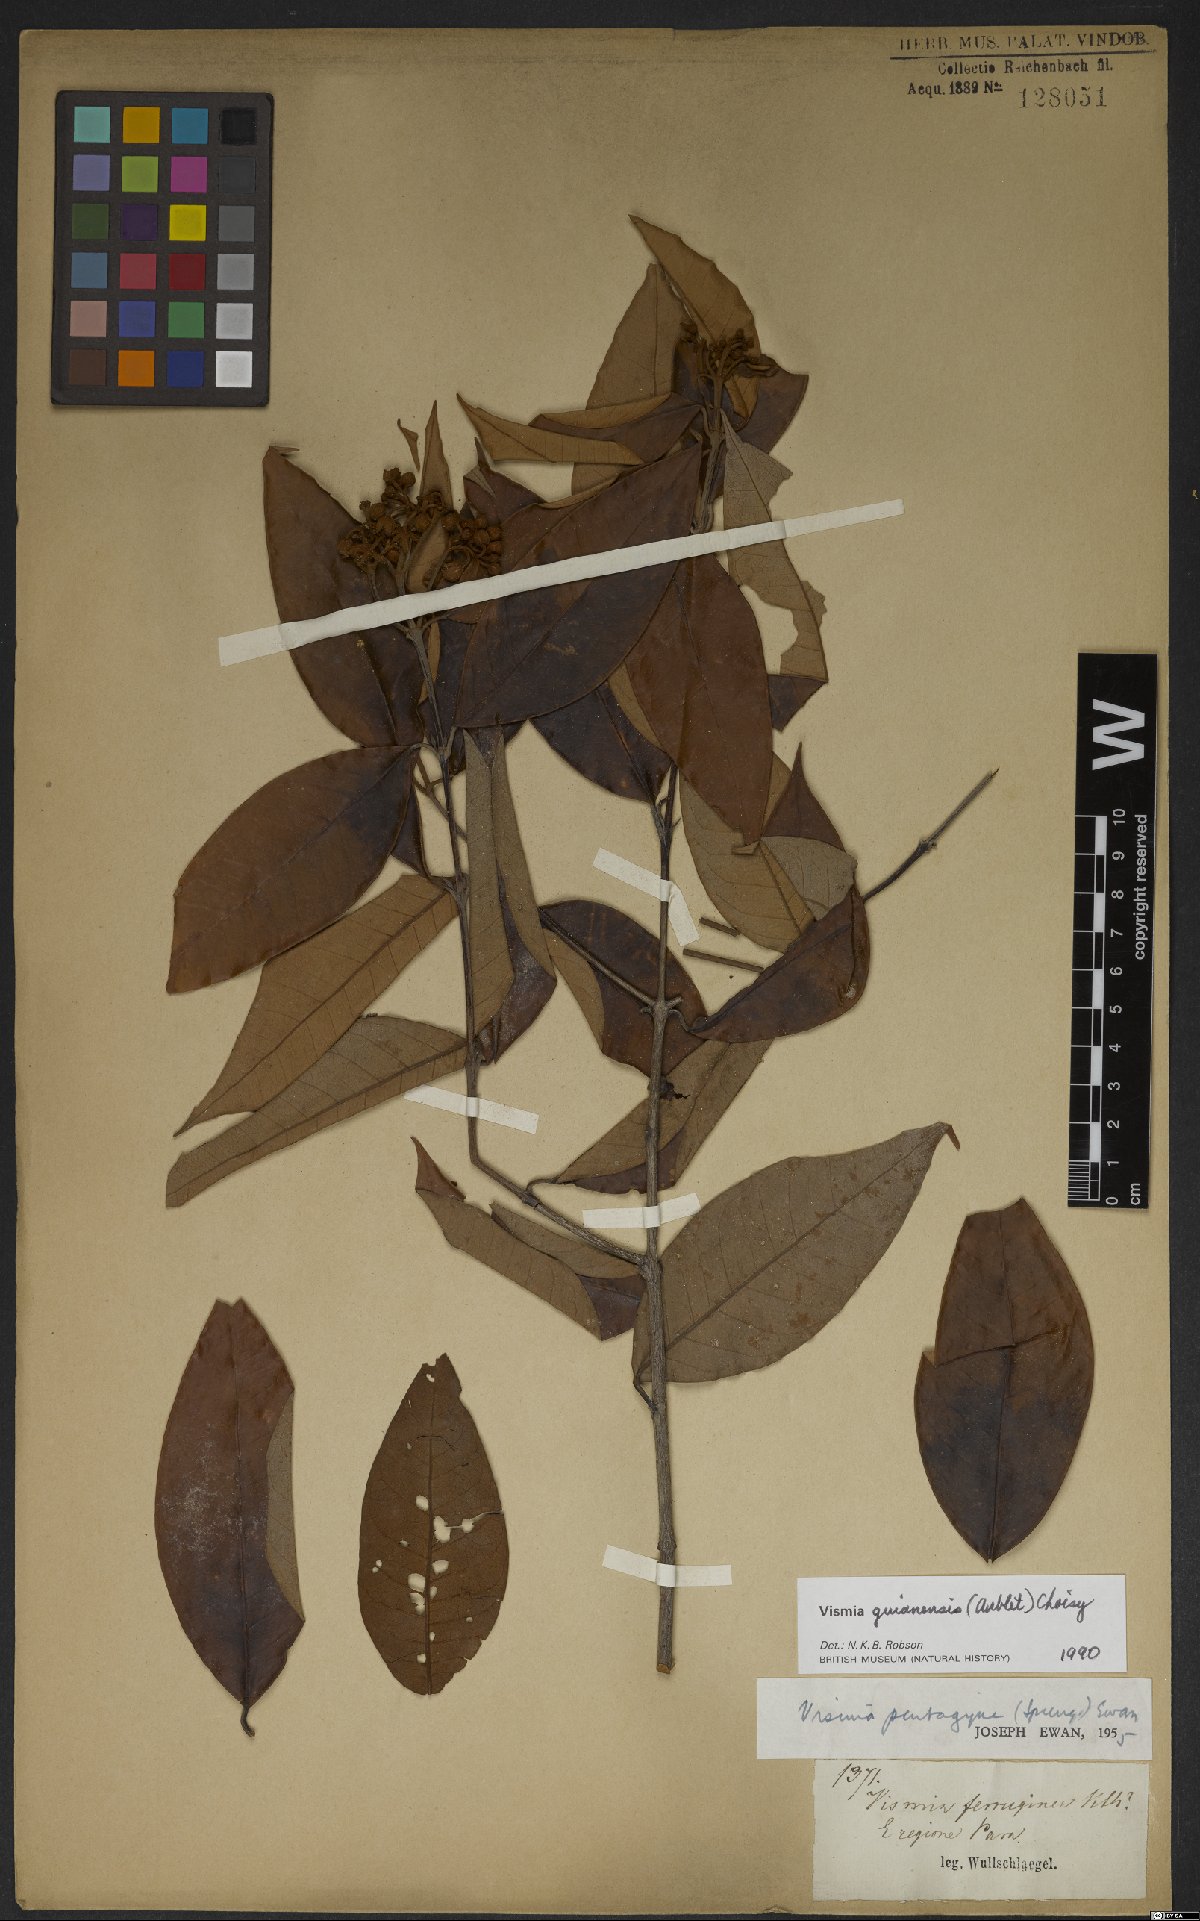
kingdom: Plantae
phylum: Tracheophyta
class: Magnoliopsida
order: Malpighiales
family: Hypericaceae
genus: Vismia
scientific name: Vismia guianensis
